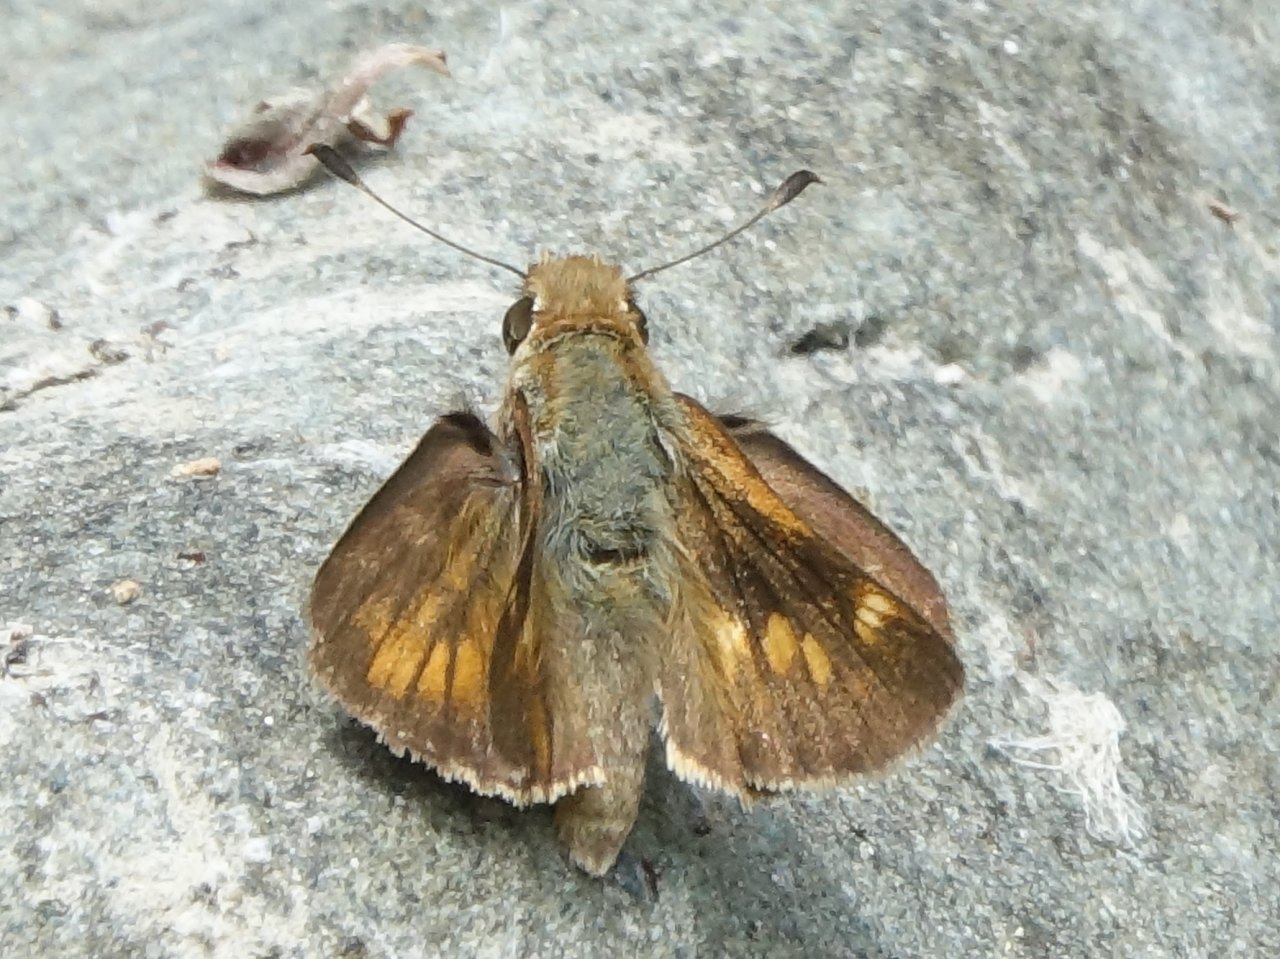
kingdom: Animalia
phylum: Arthropoda
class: Insecta
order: Lepidoptera
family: Hesperiidae
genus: Lon
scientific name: Lon melane
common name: Umber Skipper
